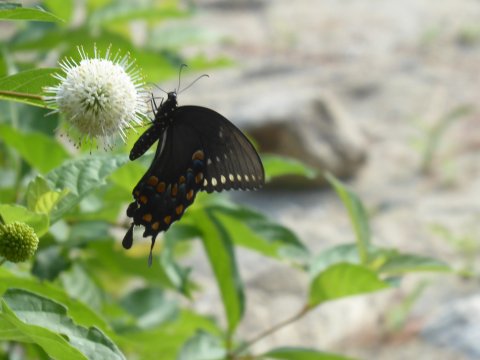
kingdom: Animalia
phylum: Arthropoda
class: Insecta
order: Lepidoptera
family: Papilionidae
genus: Pterourus
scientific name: Pterourus troilus
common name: Spicebush Swallowtail
